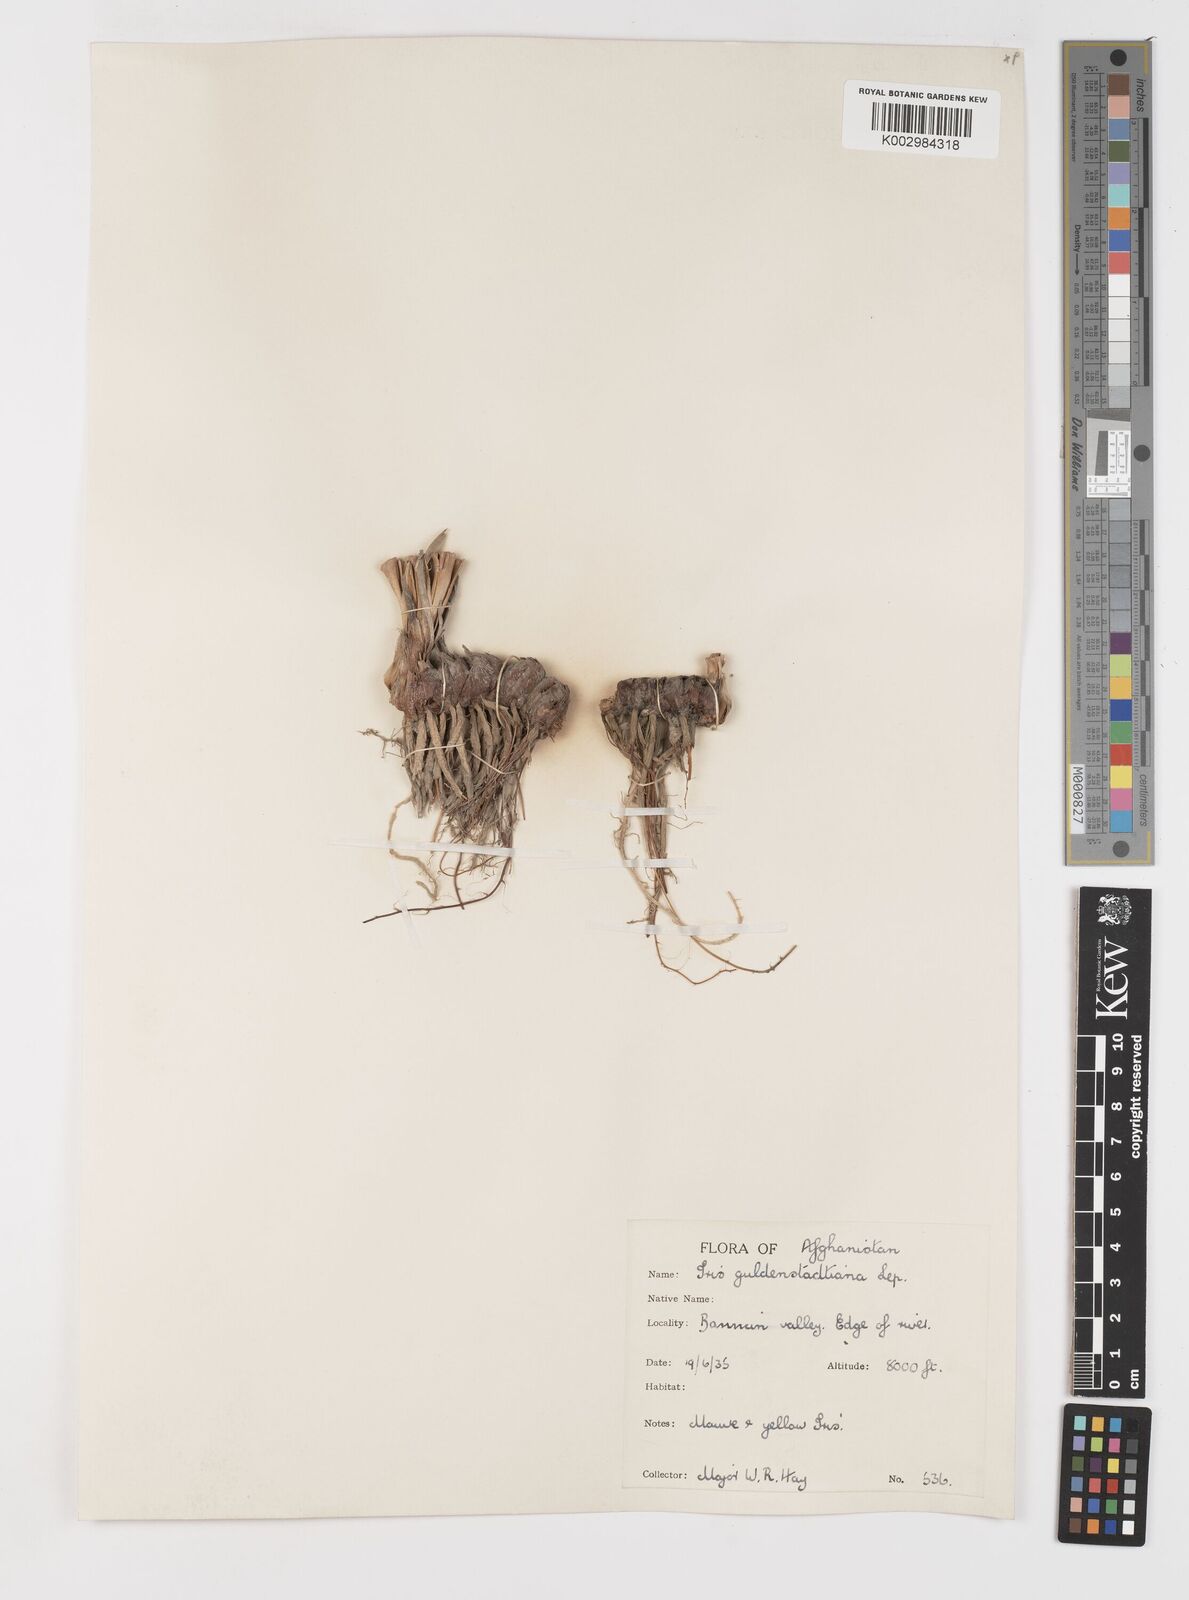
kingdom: Plantae
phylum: Tracheophyta
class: Liliopsida
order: Asparagales
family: Iridaceae
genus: Iris
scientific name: Iris spuria
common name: Blue iris
